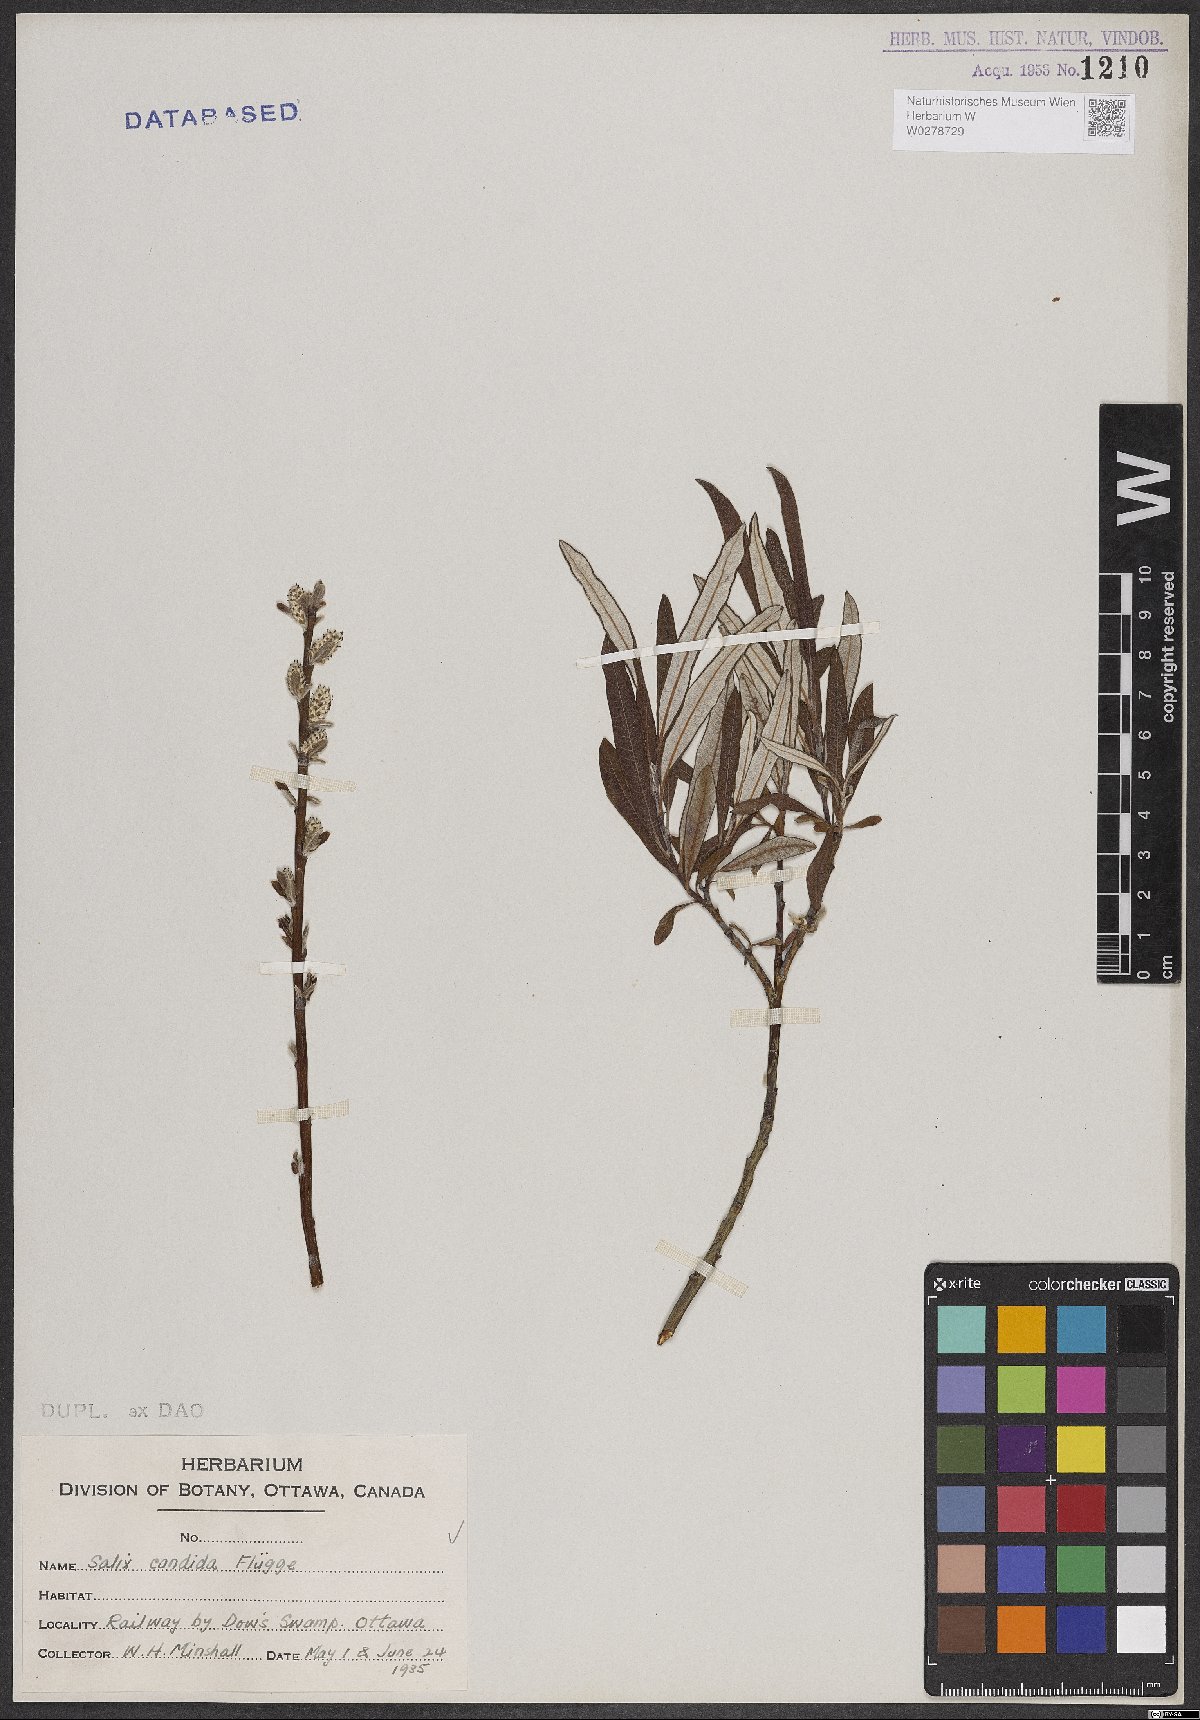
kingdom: Plantae
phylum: Tracheophyta
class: Magnoliopsida
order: Malpighiales
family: Salicaceae
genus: Salix
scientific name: Salix candida
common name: Hoary willow
